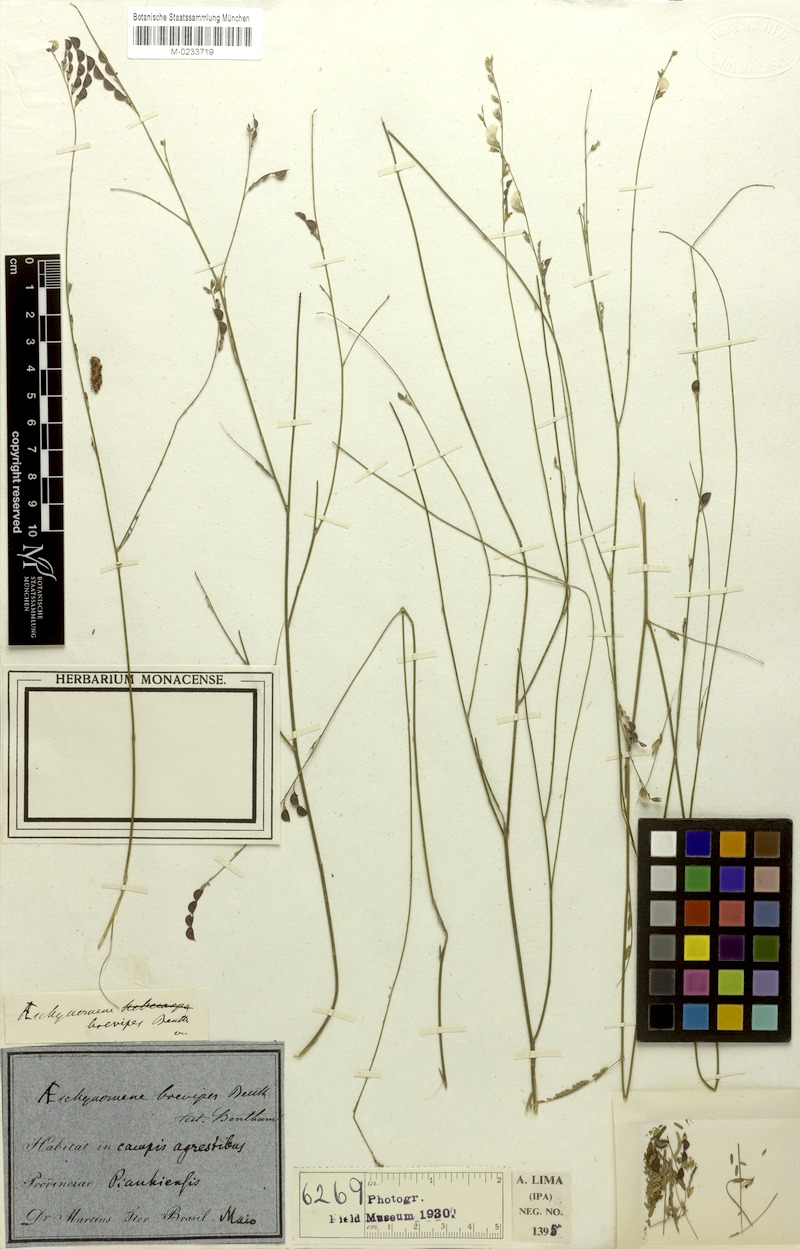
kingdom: Plantae
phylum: Tracheophyta
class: Magnoliopsida
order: Fabales
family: Fabaceae
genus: Ctenodon
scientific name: Ctenodon brevipes
